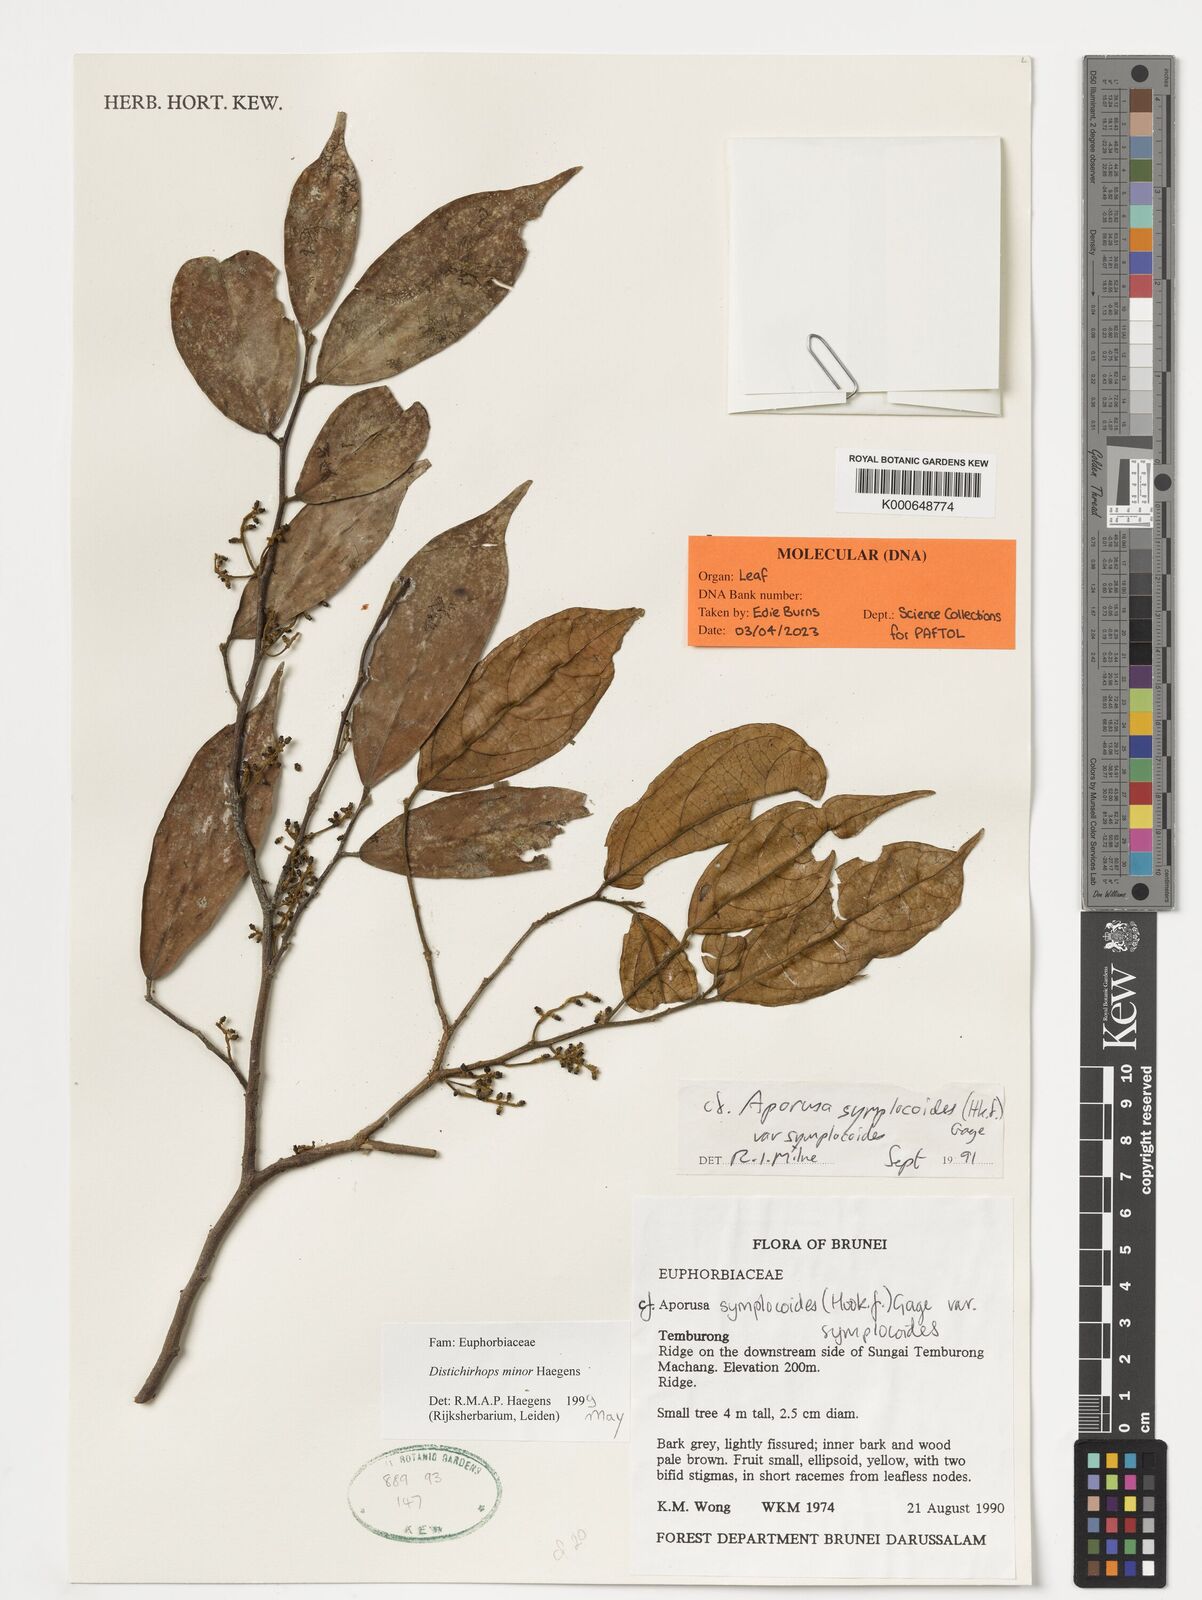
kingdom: Plantae
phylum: Tracheophyta
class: Magnoliopsida
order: Malpighiales
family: Phyllanthaceae
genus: Distichirhops
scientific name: Distichirhops minor
